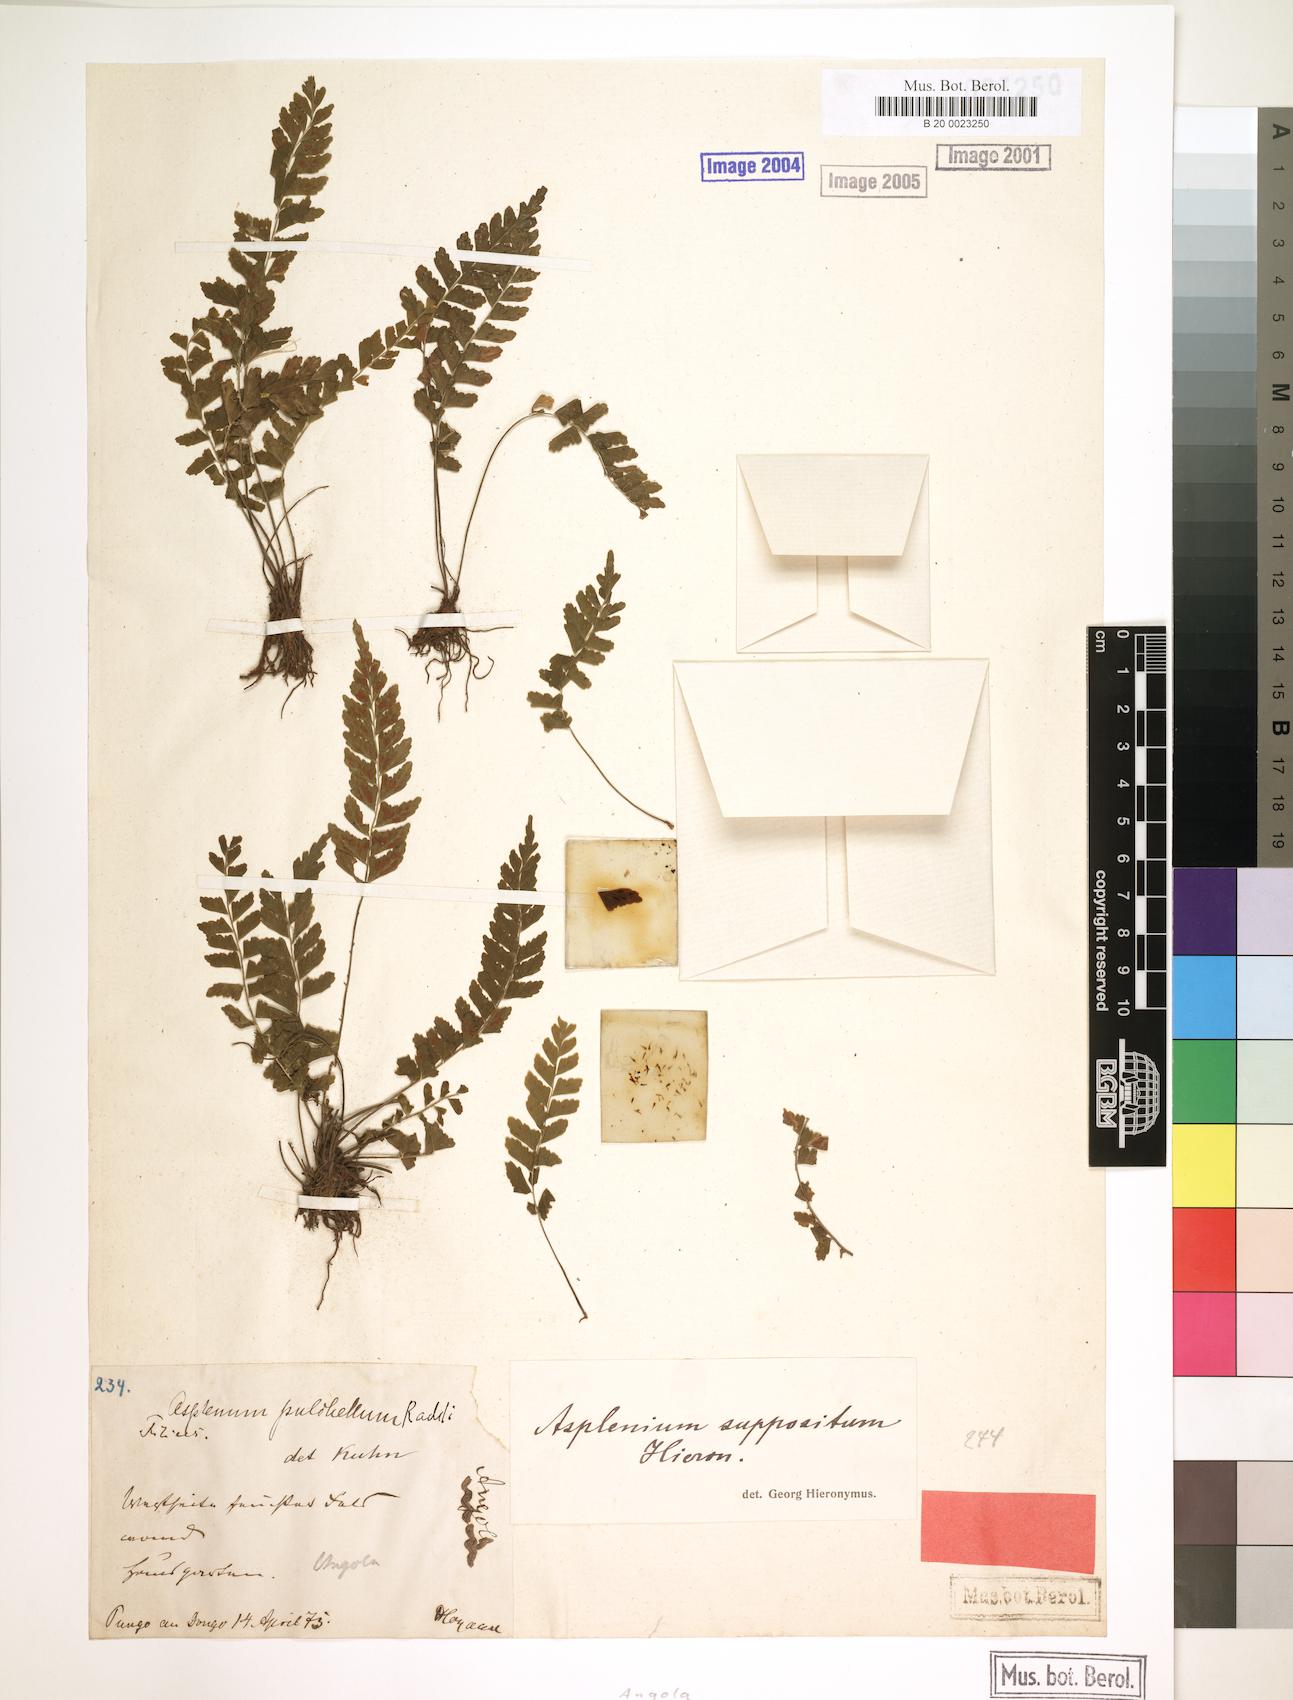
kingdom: Plantae
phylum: Tracheophyta
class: Polypodiopsida
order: Polypodiales
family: Aspleniaceae
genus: Asplenium
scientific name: Asplenium inaequilaterale
